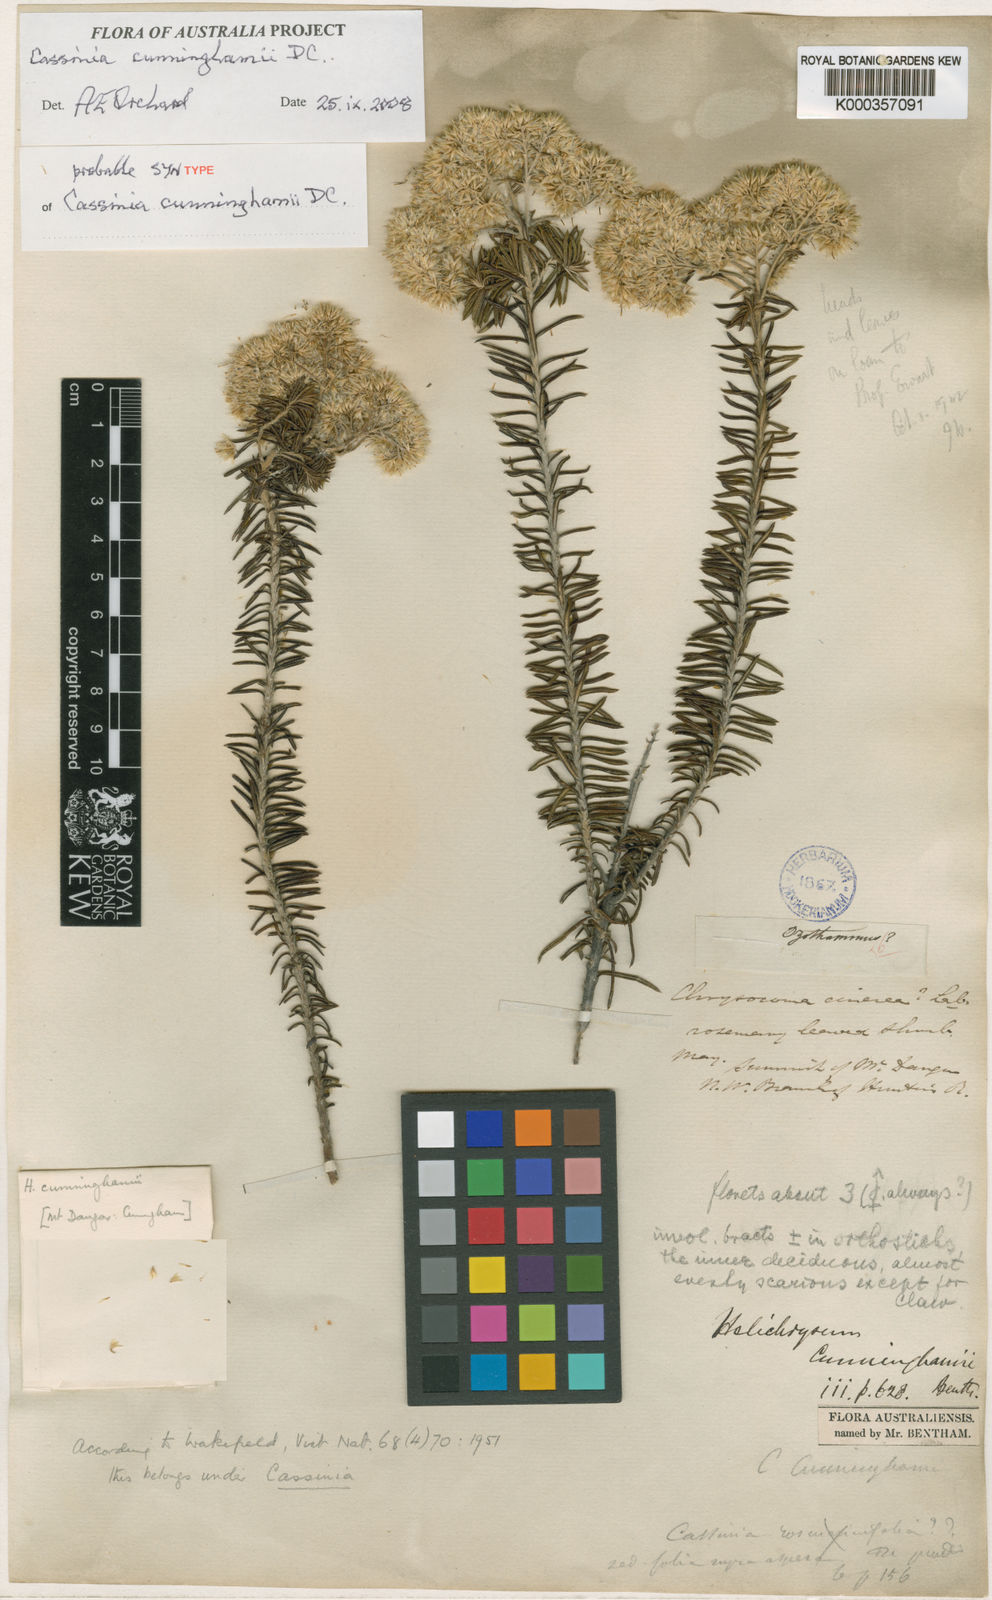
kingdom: Plantae
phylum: Tracheophyta
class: Magnoliopsida
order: Asterales
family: Asteraceae
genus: Cassinia
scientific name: Cassinia cunninghamii
